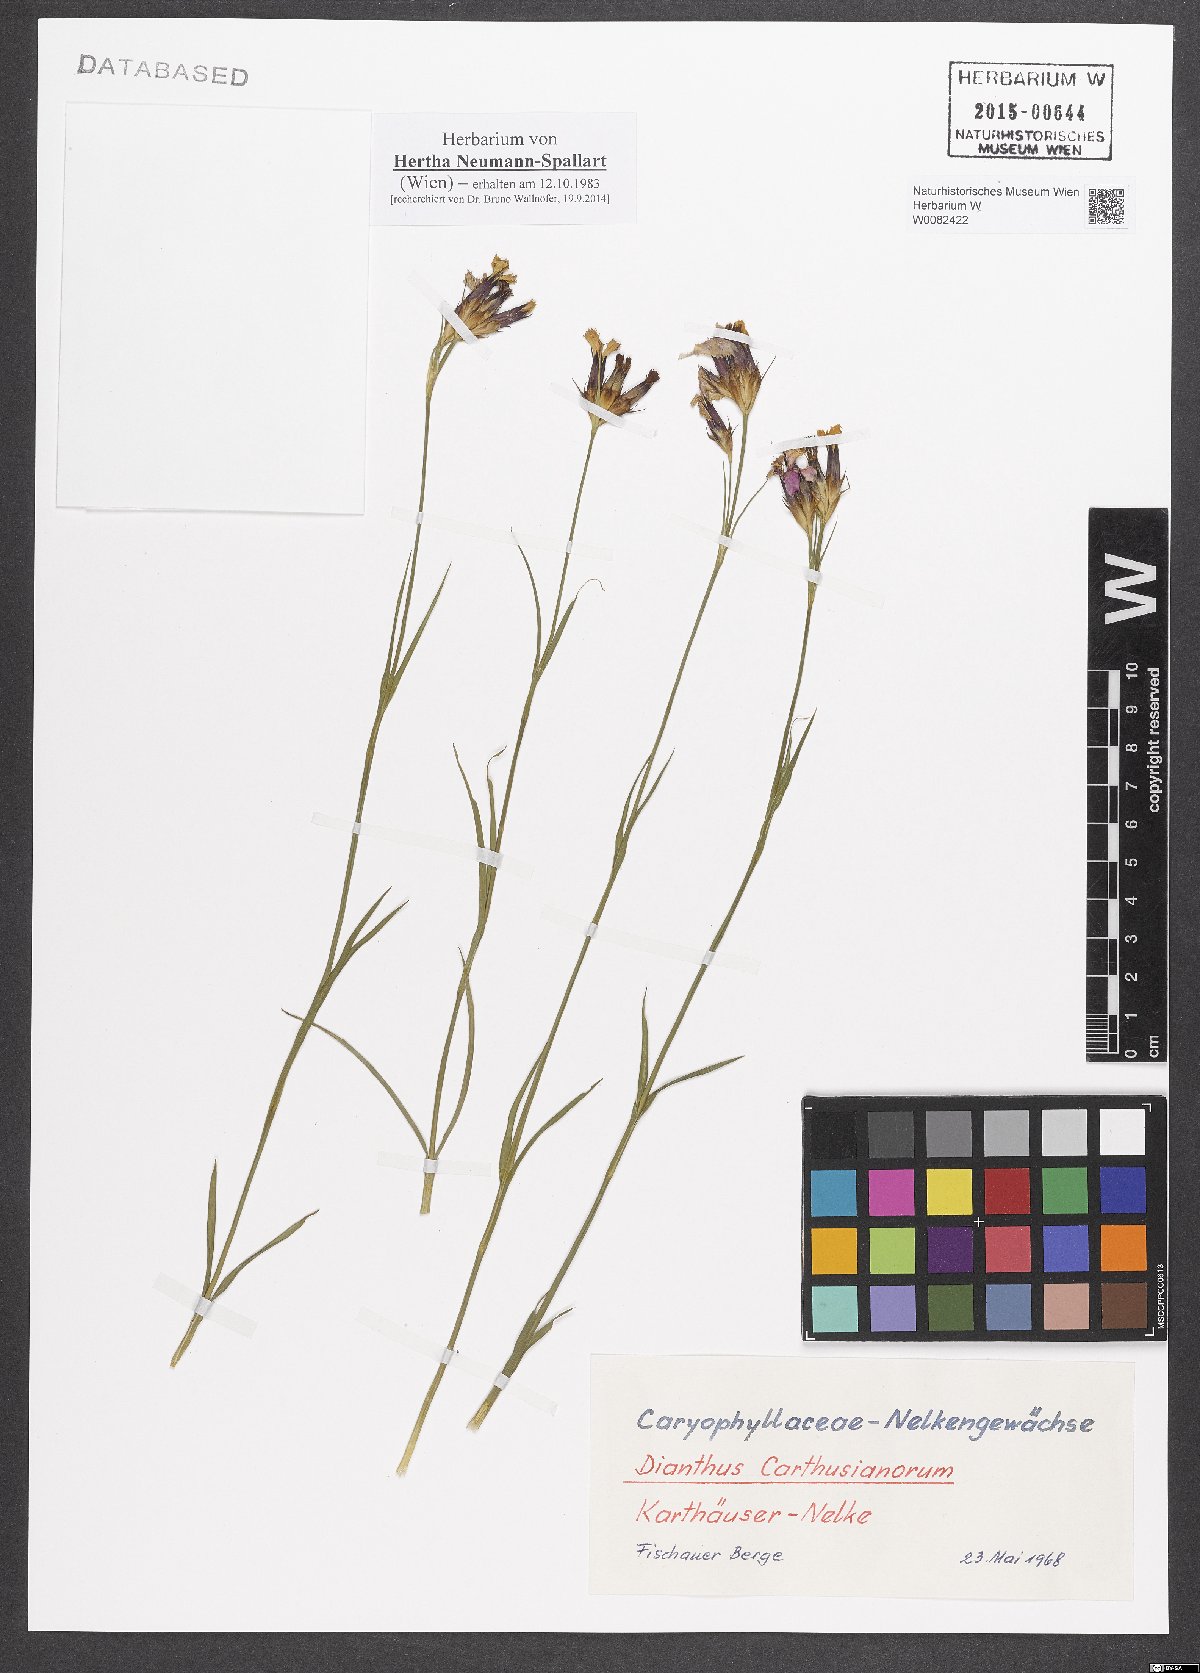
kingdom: Plantae
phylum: Tracheophyta
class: Magnoliopsida
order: Caryophyllales
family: Caryophyllaceae
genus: Dianthus
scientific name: Dianthus carthusianorum
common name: Carthusian pink
